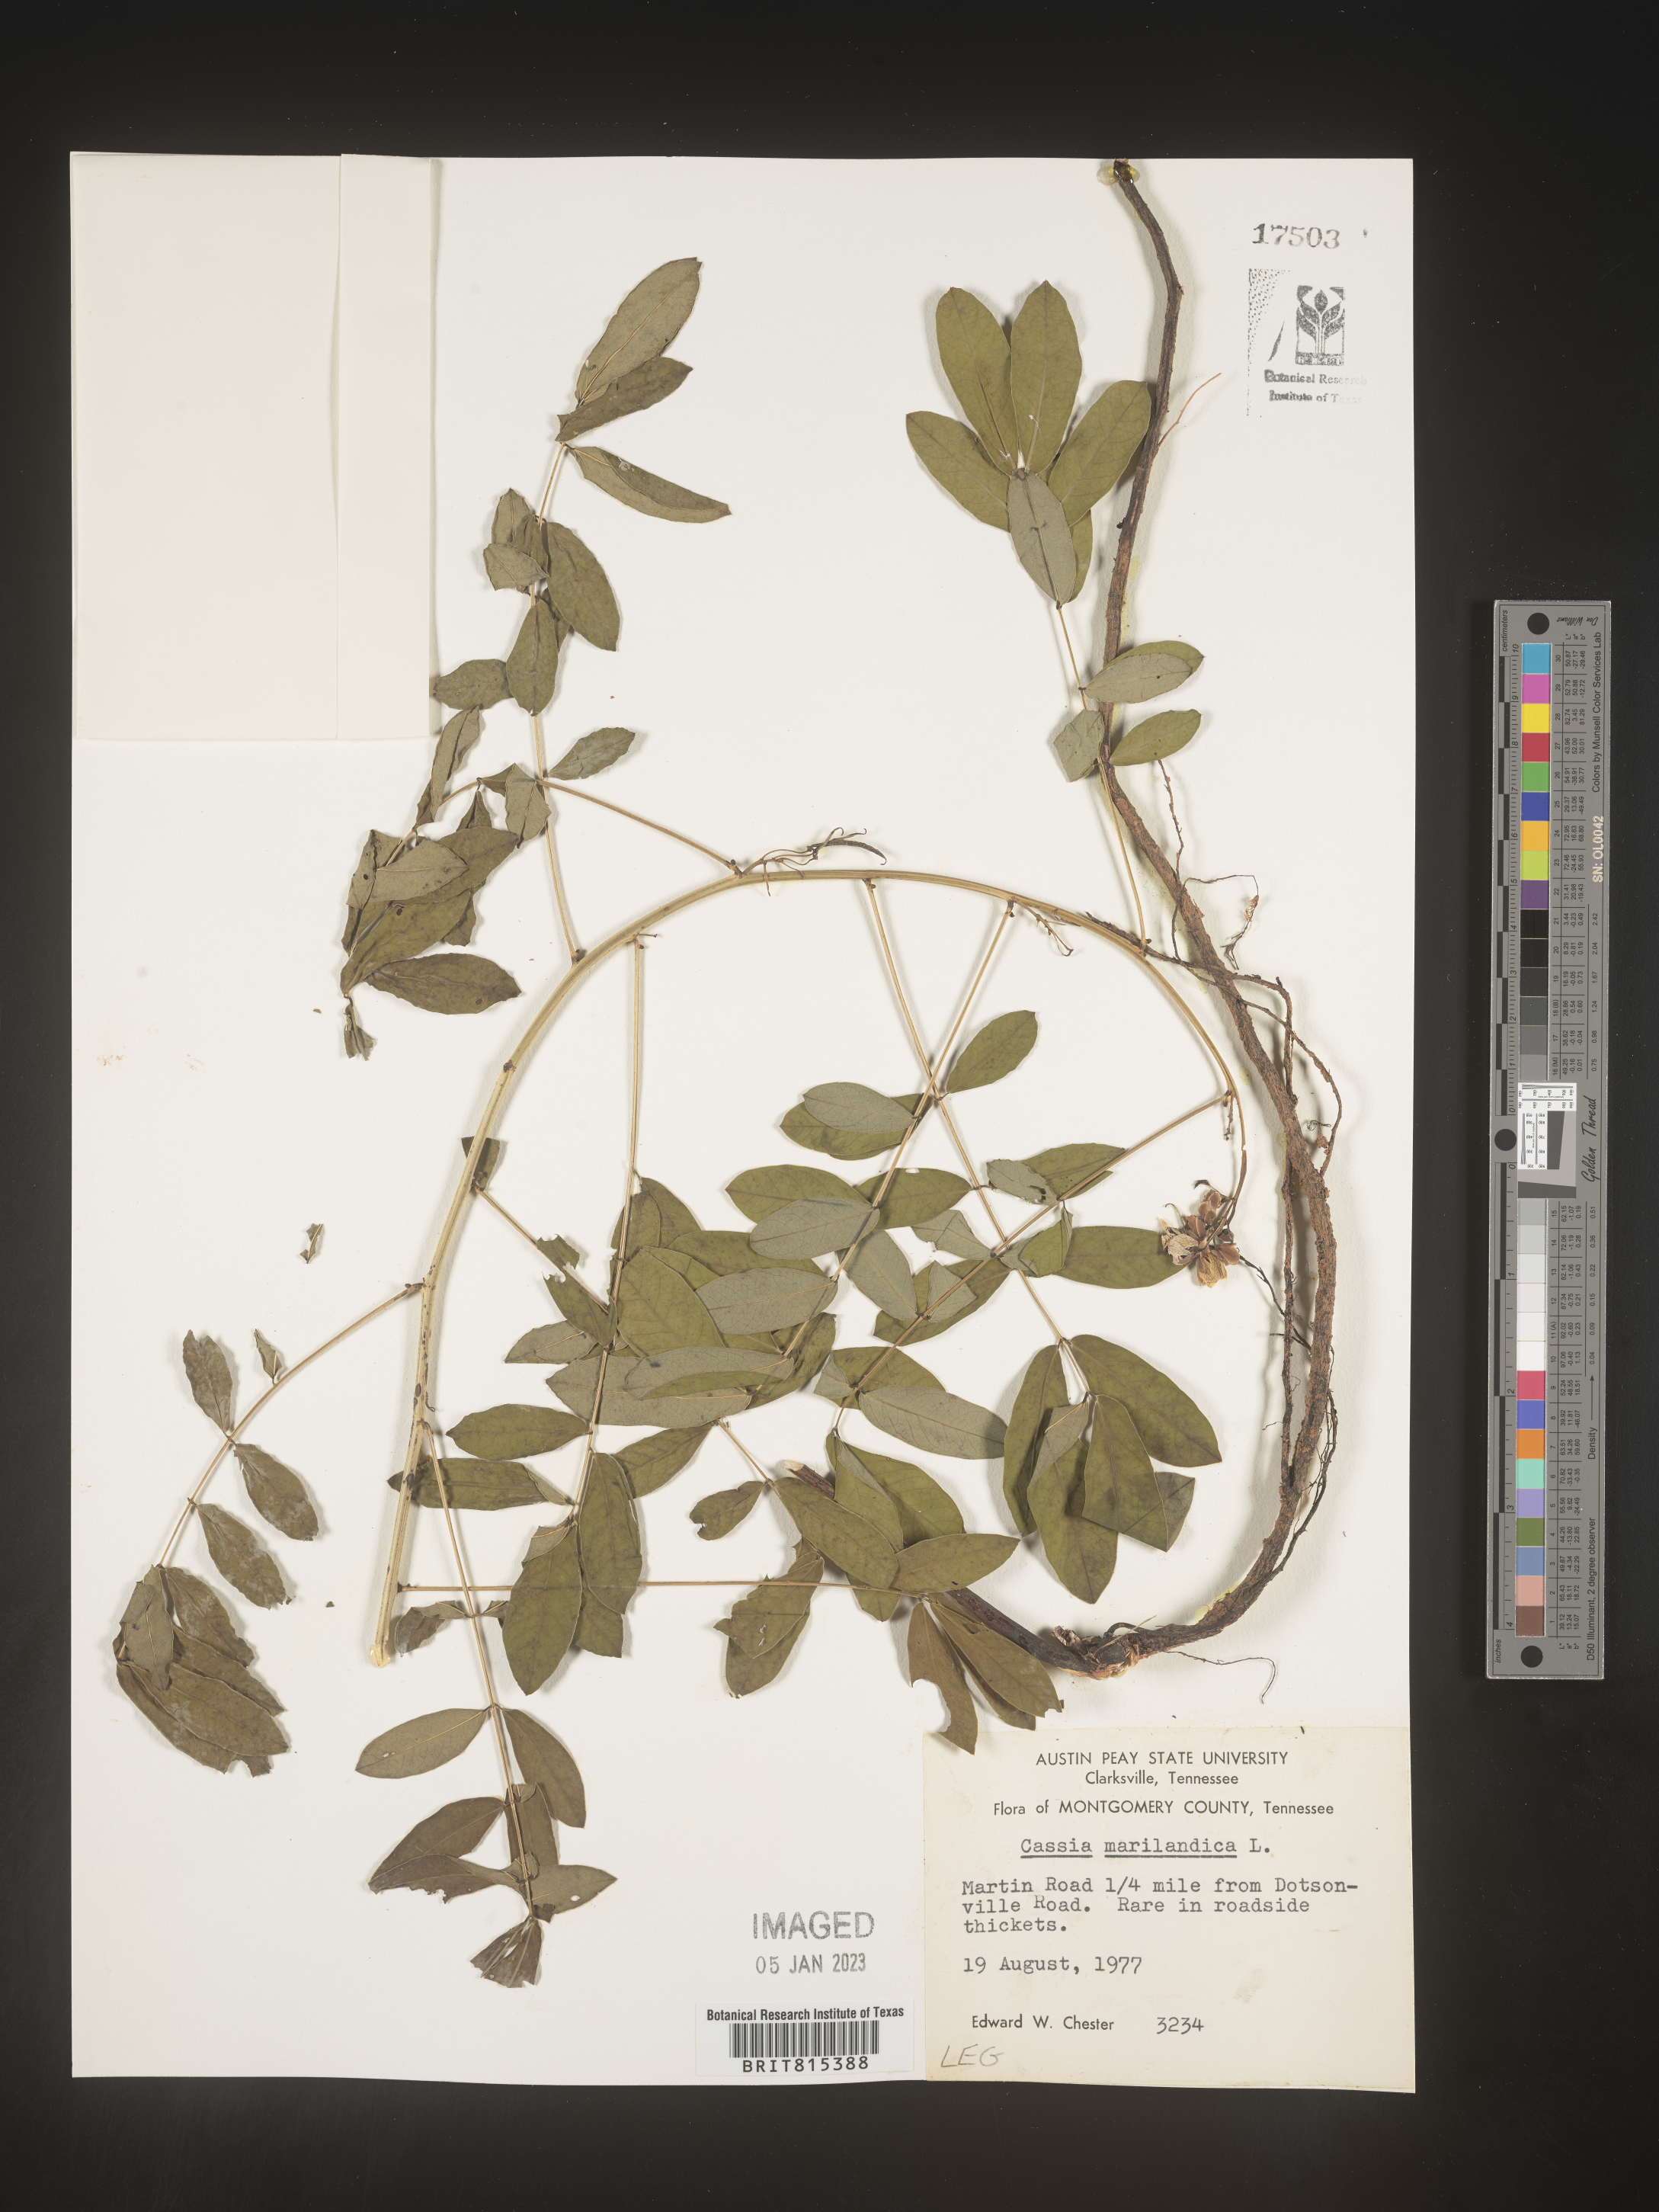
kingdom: Plantae
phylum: Tracheophyta
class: Magnoliopsida
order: Fabales
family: Fabaceae
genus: Senna
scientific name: Senna marilandica
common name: American senna
